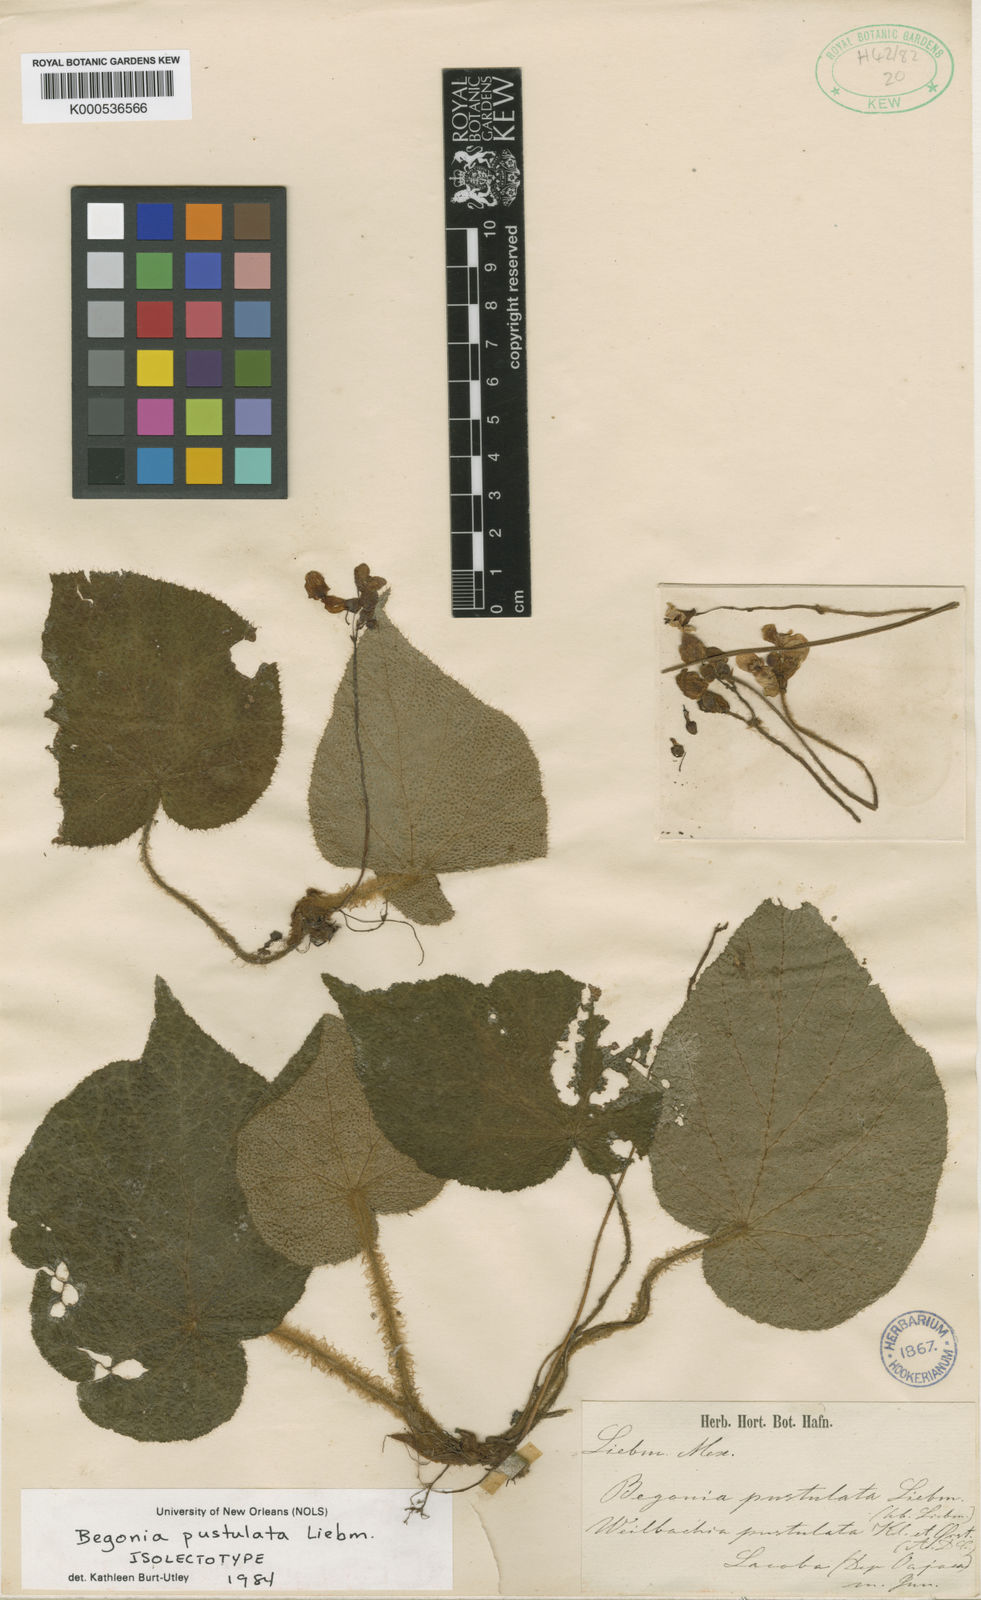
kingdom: Plantae
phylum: Tracheophyta
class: Magnoliopsida
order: Cucurbitales
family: Begoniaceae
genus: Begonia
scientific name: Begonia pustulata
